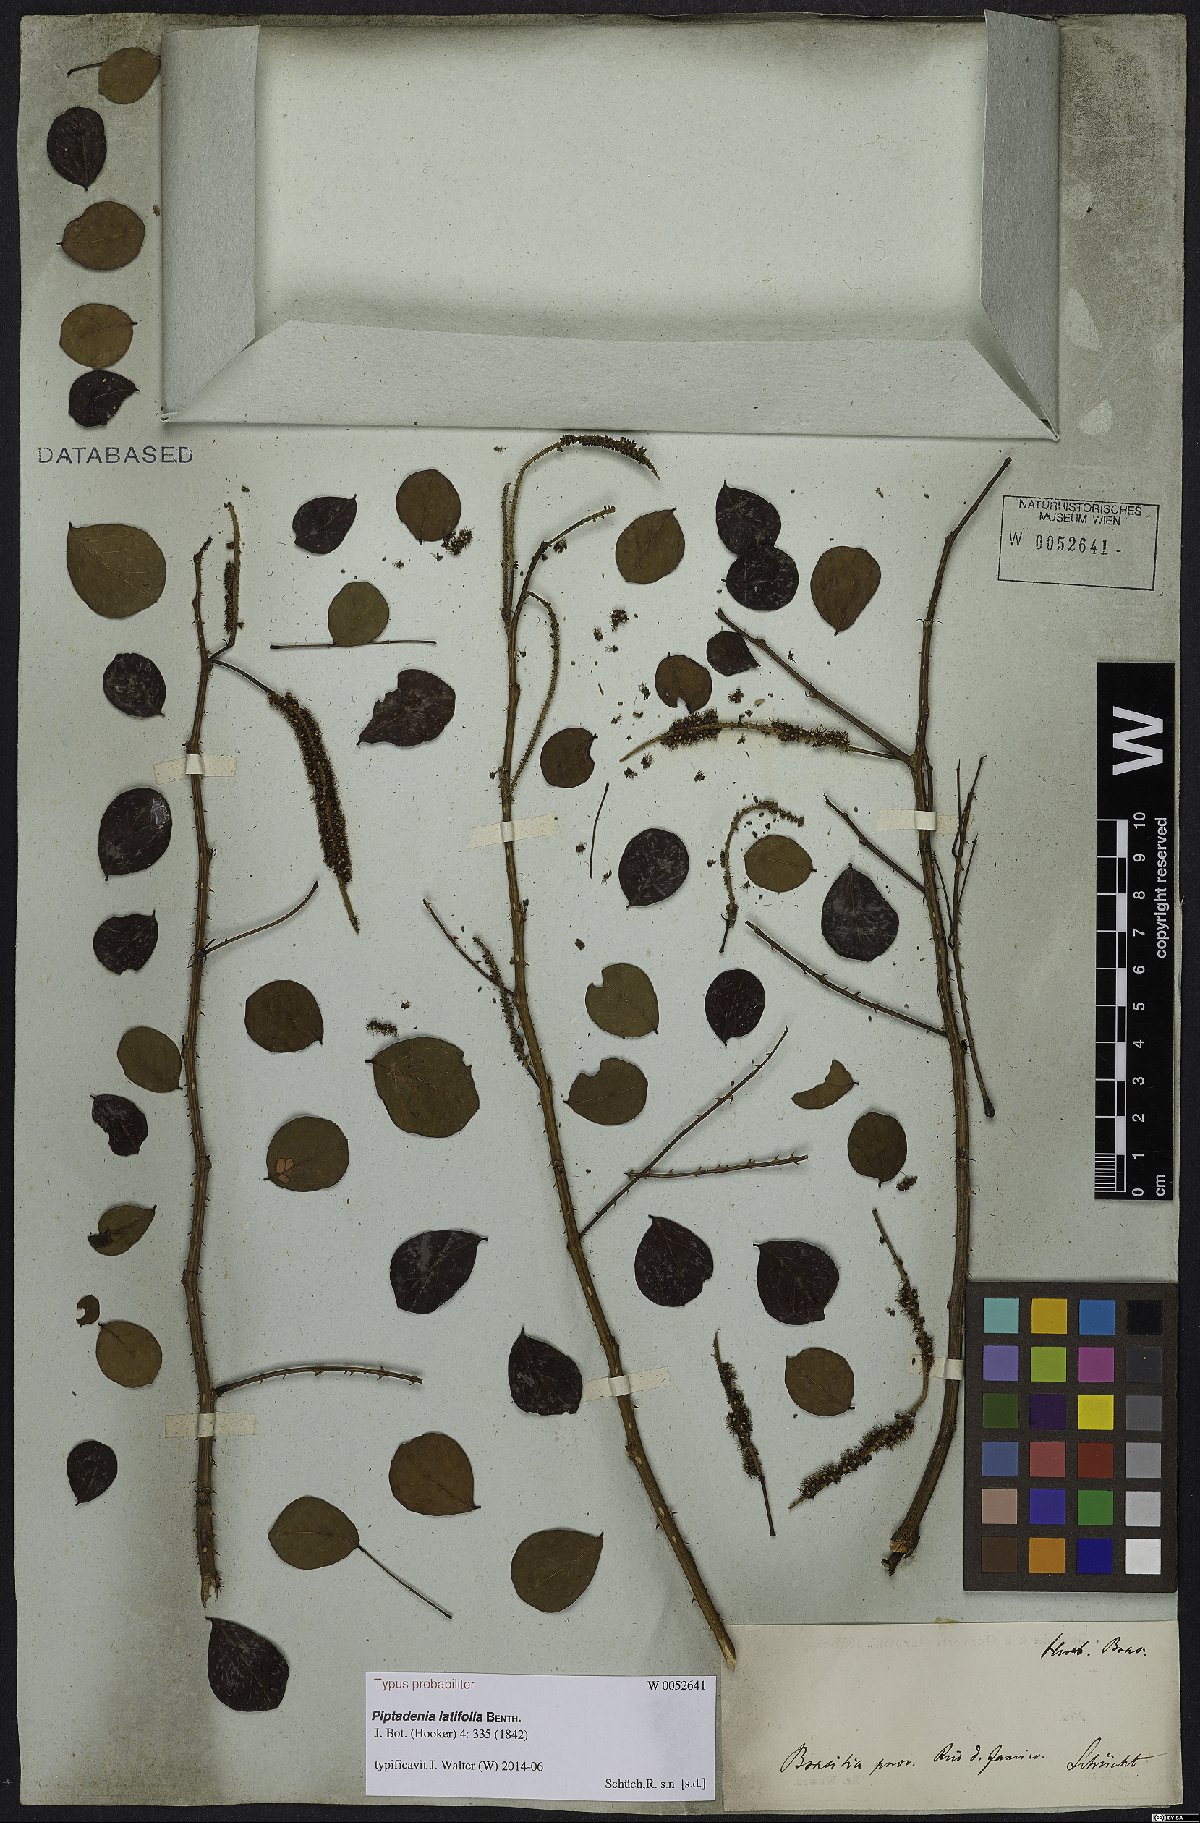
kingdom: Plantae
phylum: Tracheophyta
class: Magnoliopsida
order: Fabales
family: Fabaceae
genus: Piptadenia
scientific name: Piptadenia adiantoides
